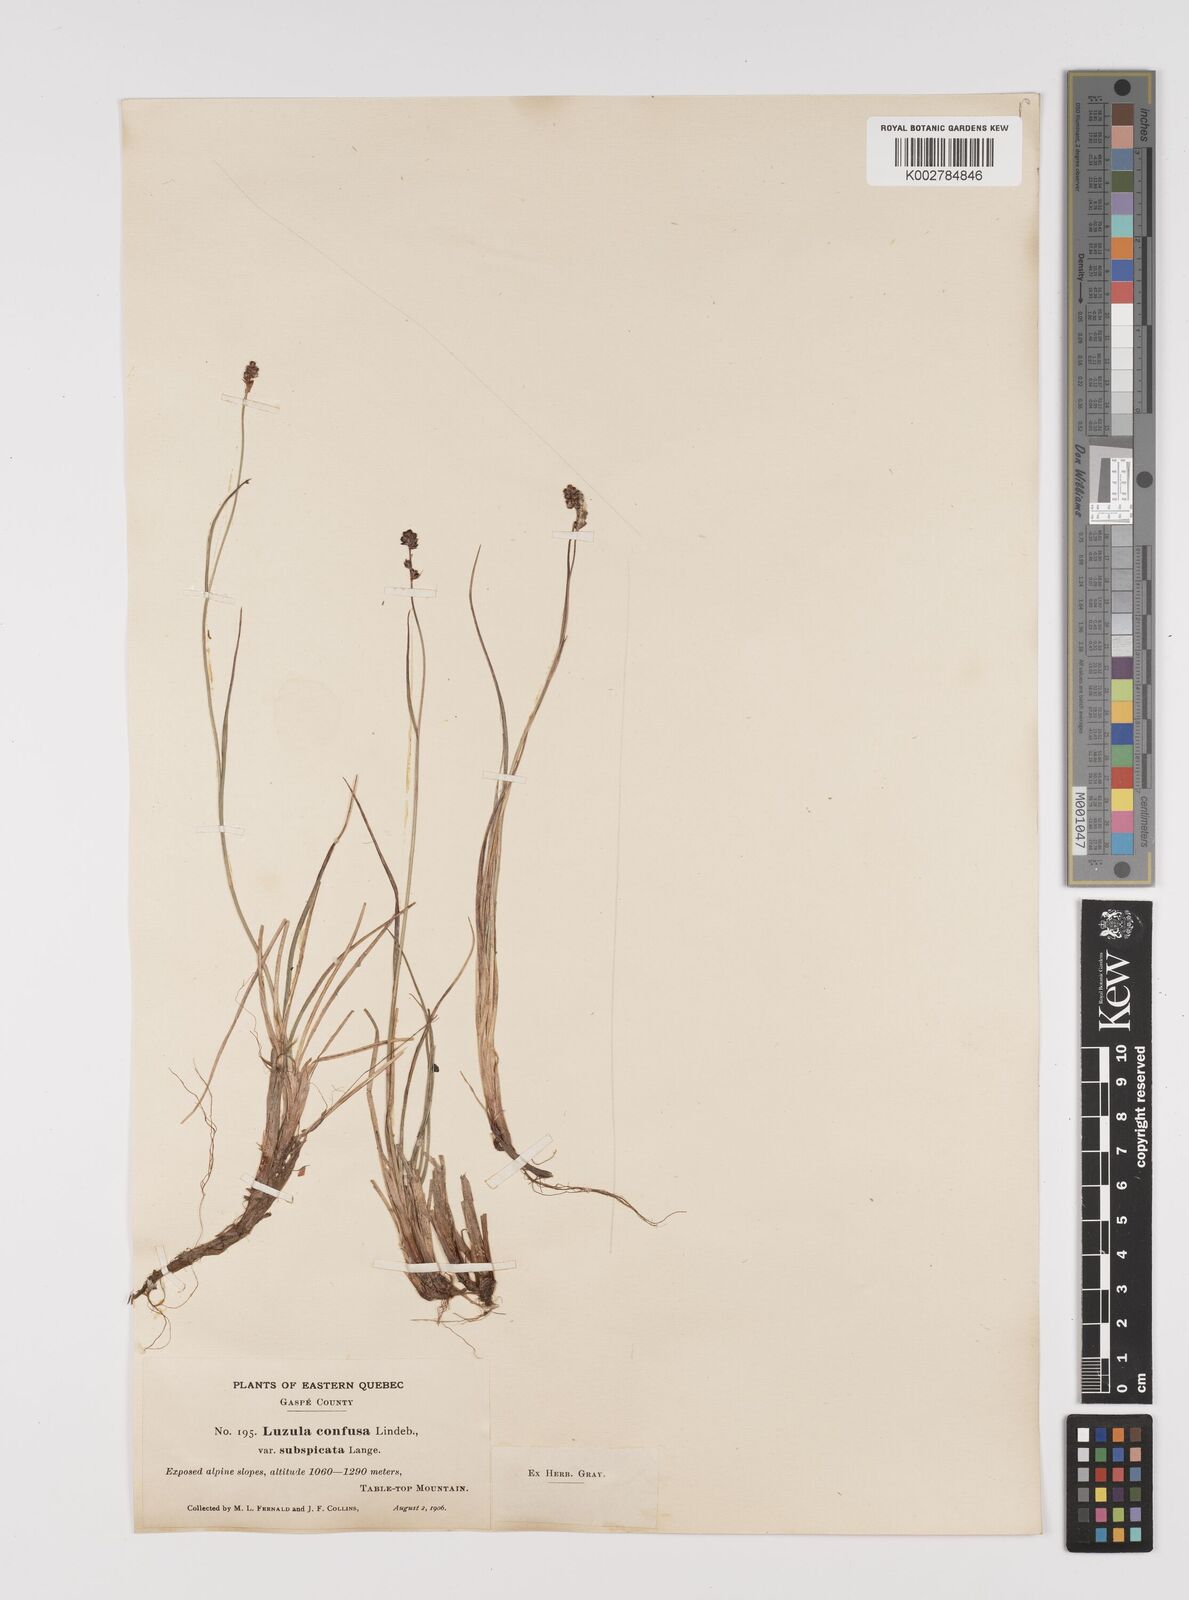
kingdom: Plantae
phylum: Tracheophyta
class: Liliopsida
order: Poales
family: Juncaceae
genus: Luzula
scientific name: Luzula confusa
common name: Northern wood rush
